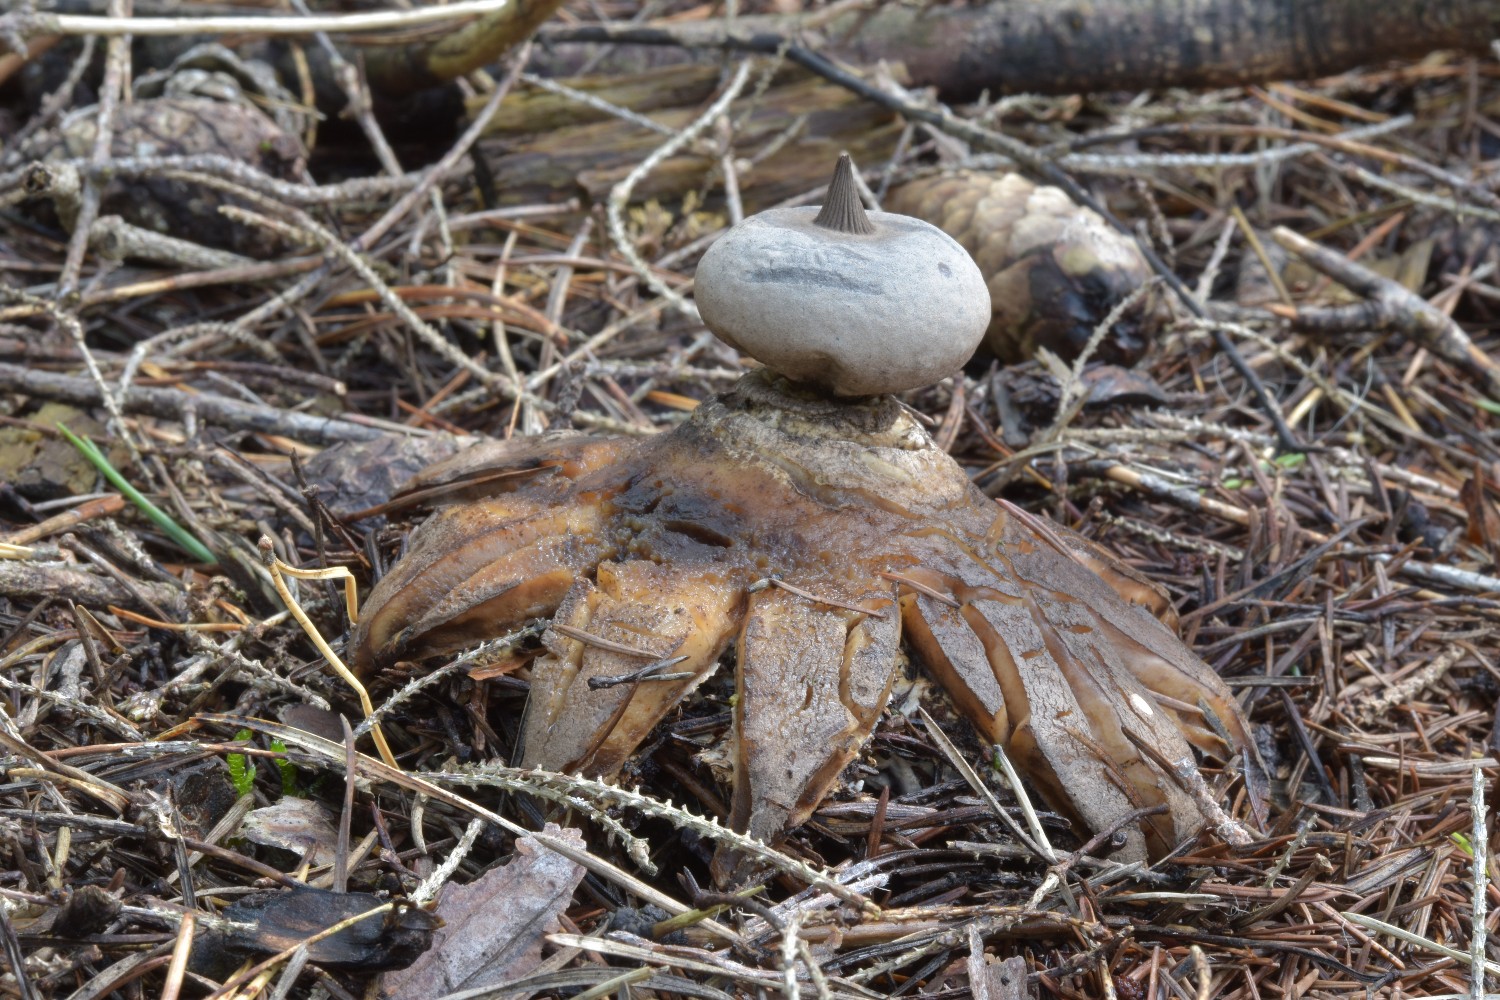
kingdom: Fungi
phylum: Basidiomycota
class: Agaricomycetes
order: Geastrales
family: Geastraceae
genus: Geastrum
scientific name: Geastrum pectinatum
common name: stilket stjernebold
